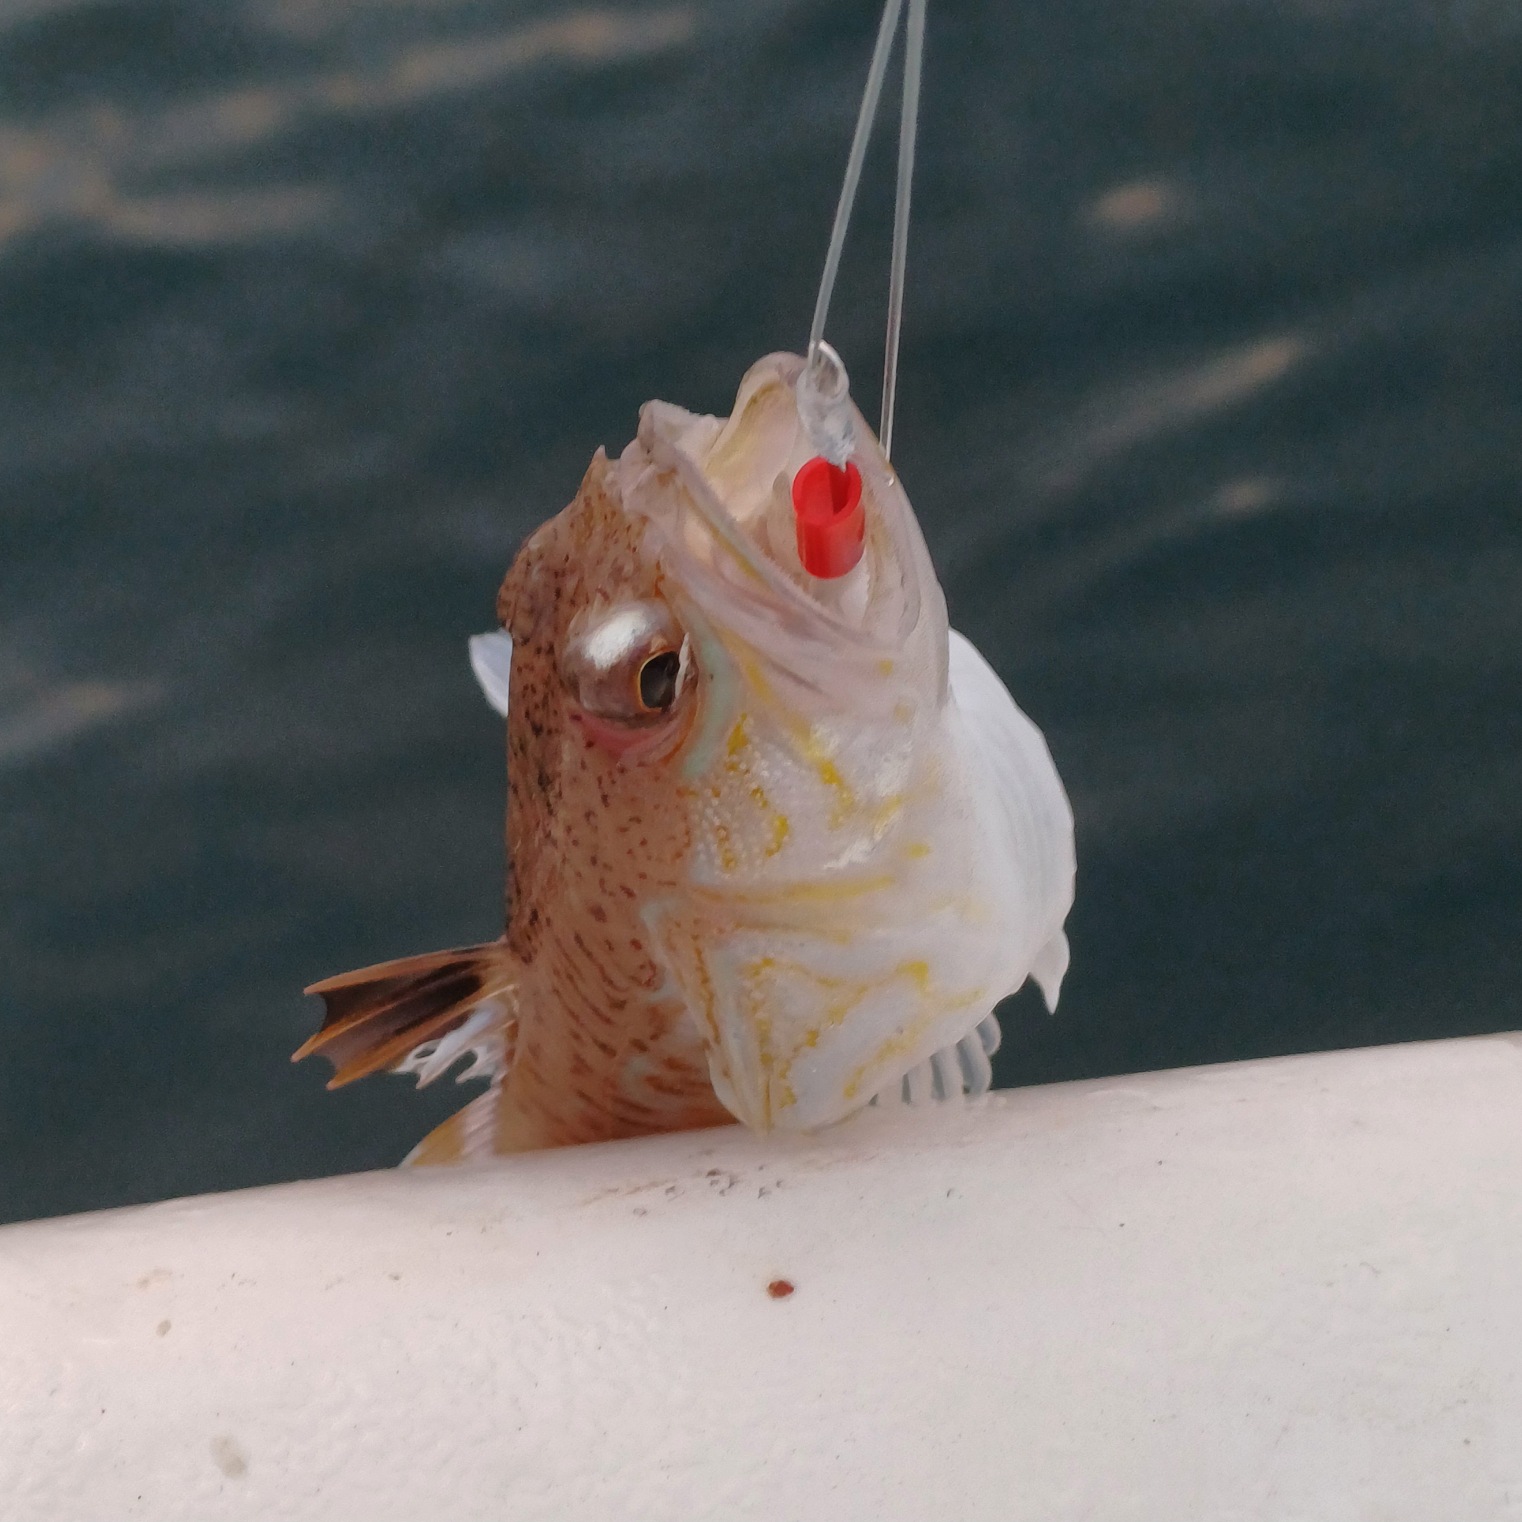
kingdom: Animalia
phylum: Chordata
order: Perciformes
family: Trachinidae
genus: Trachinus
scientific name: Trachinus draco
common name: Almindelig fjæsing
